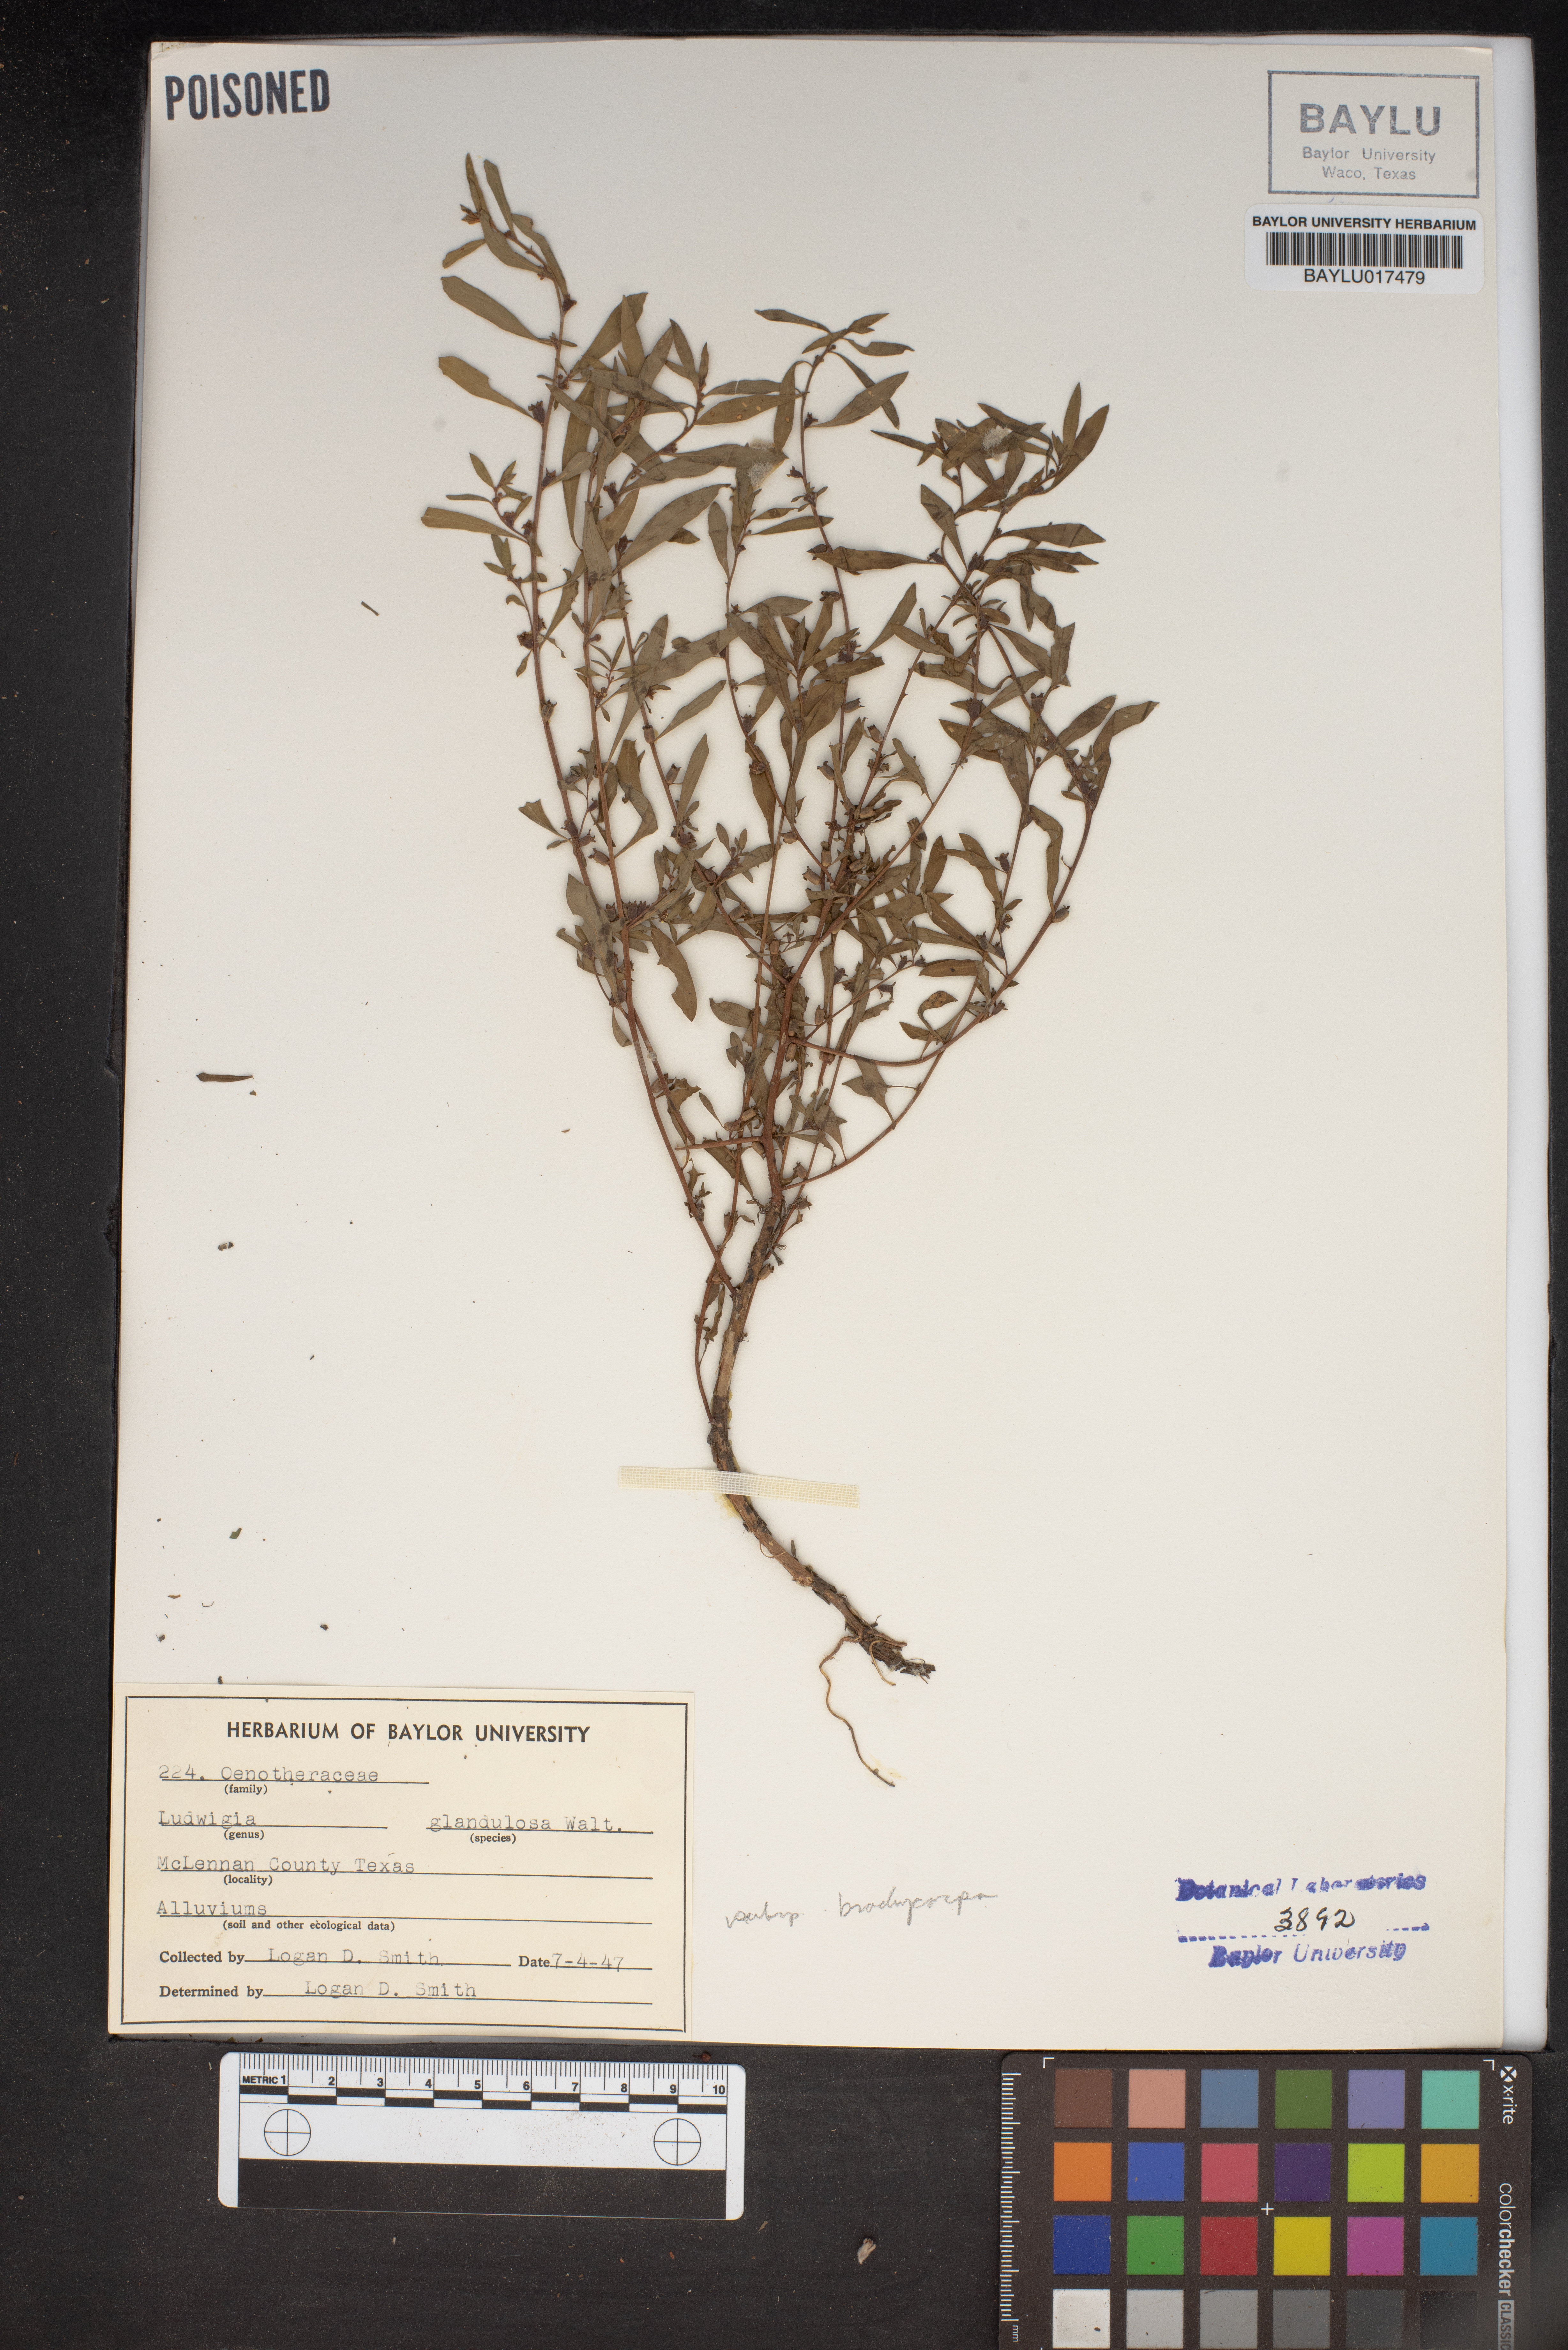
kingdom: Plantae
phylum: Tracheophyta
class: Magnoliopsida
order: Myrtales
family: Onagraceae
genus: Ludwigia
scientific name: Ludwigia glandulosa
